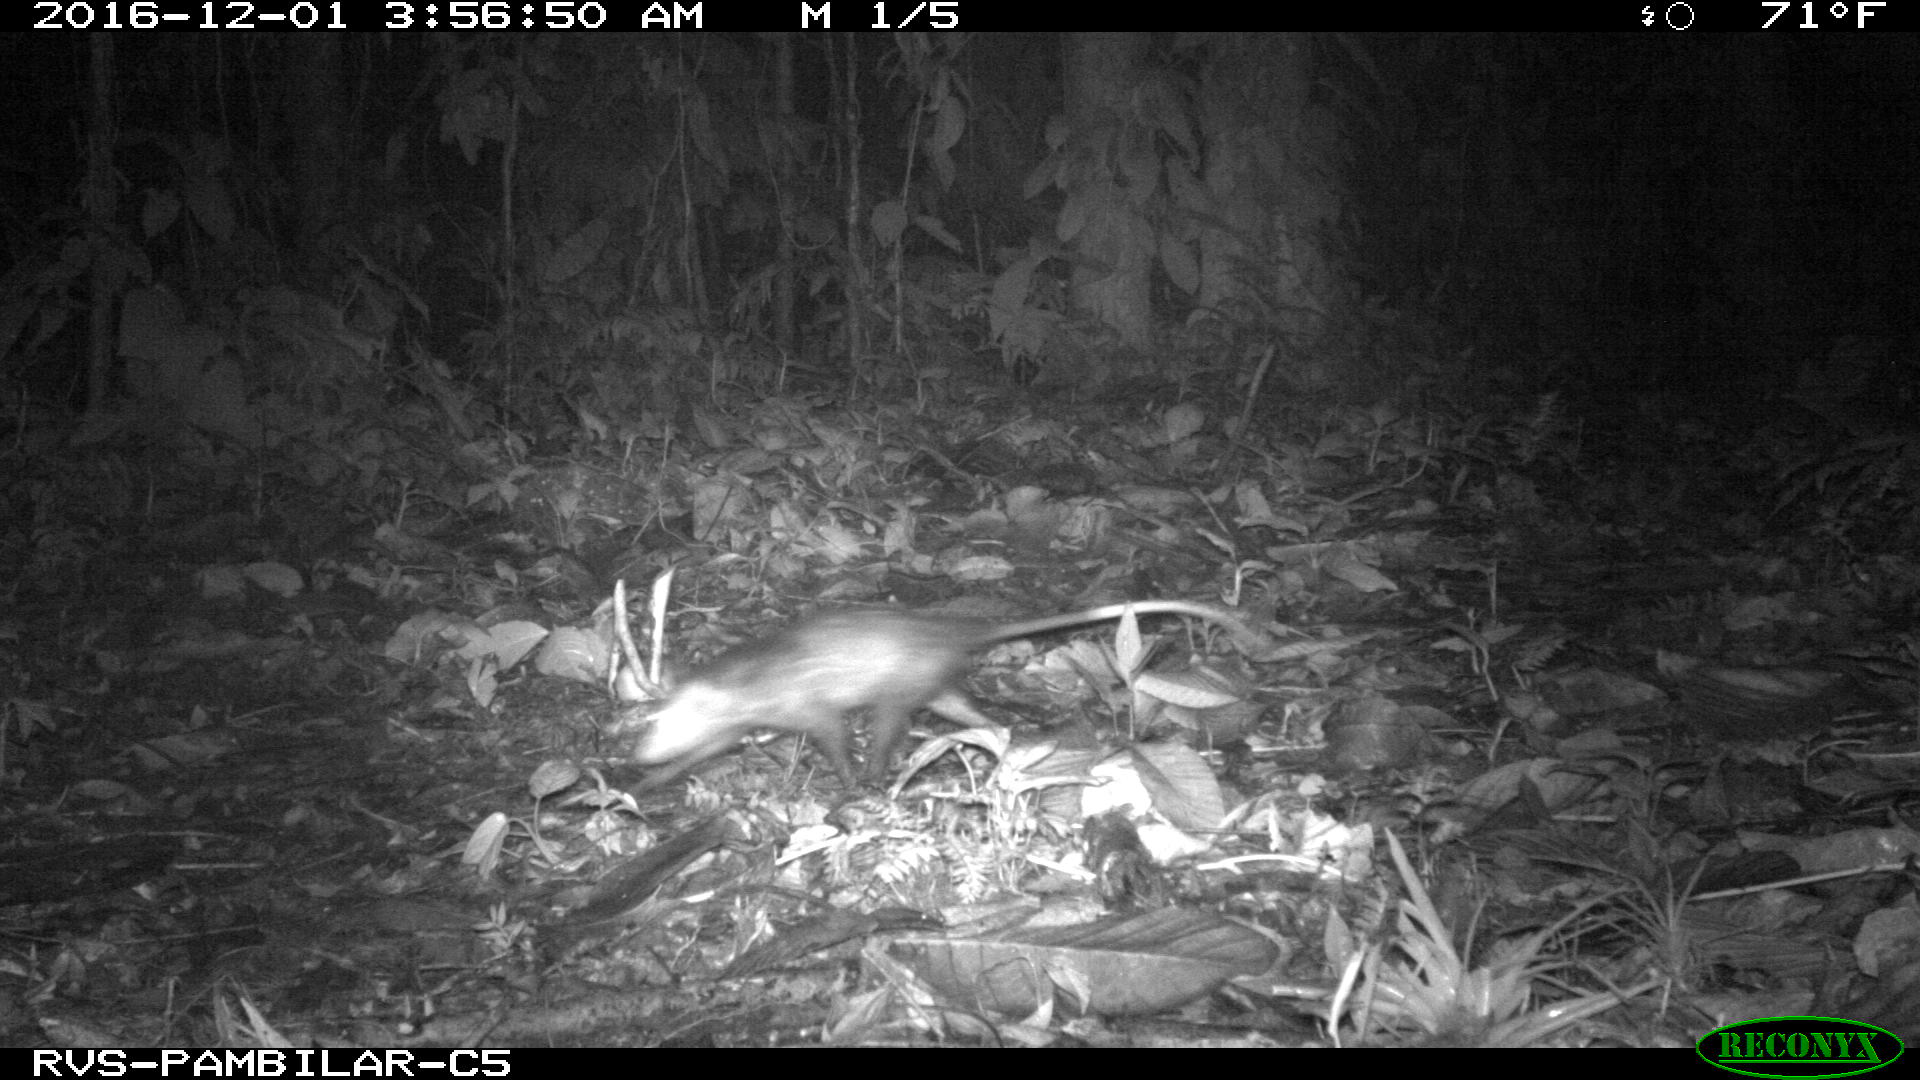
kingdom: Animalia
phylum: Chordata
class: Mammalia
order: Didelphimorphia
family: Didelphidae
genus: Didelphis
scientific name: Didelphis marsupialis
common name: Common opossum
